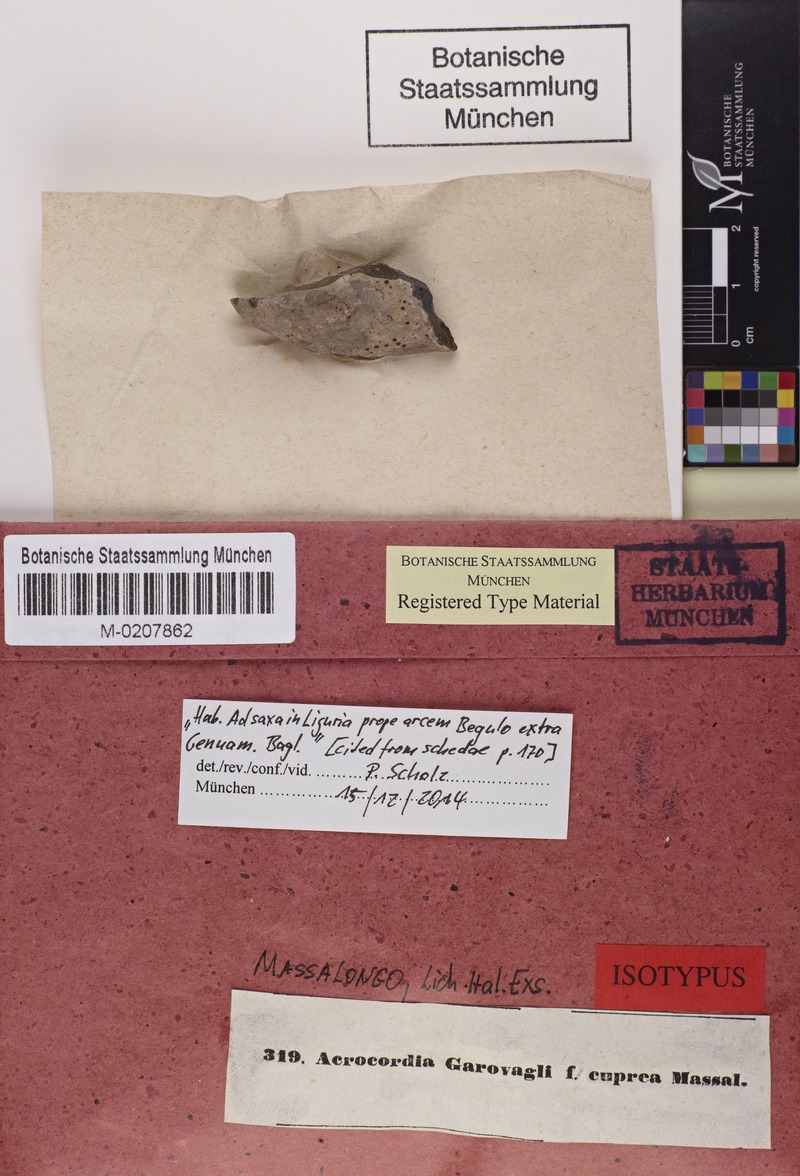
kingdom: Fungi
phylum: Ascomycota
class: Dothideomycetes
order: Monoblastiales
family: Monoblastiaceae
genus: Acrocordia
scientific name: Acrocordia conoidea
